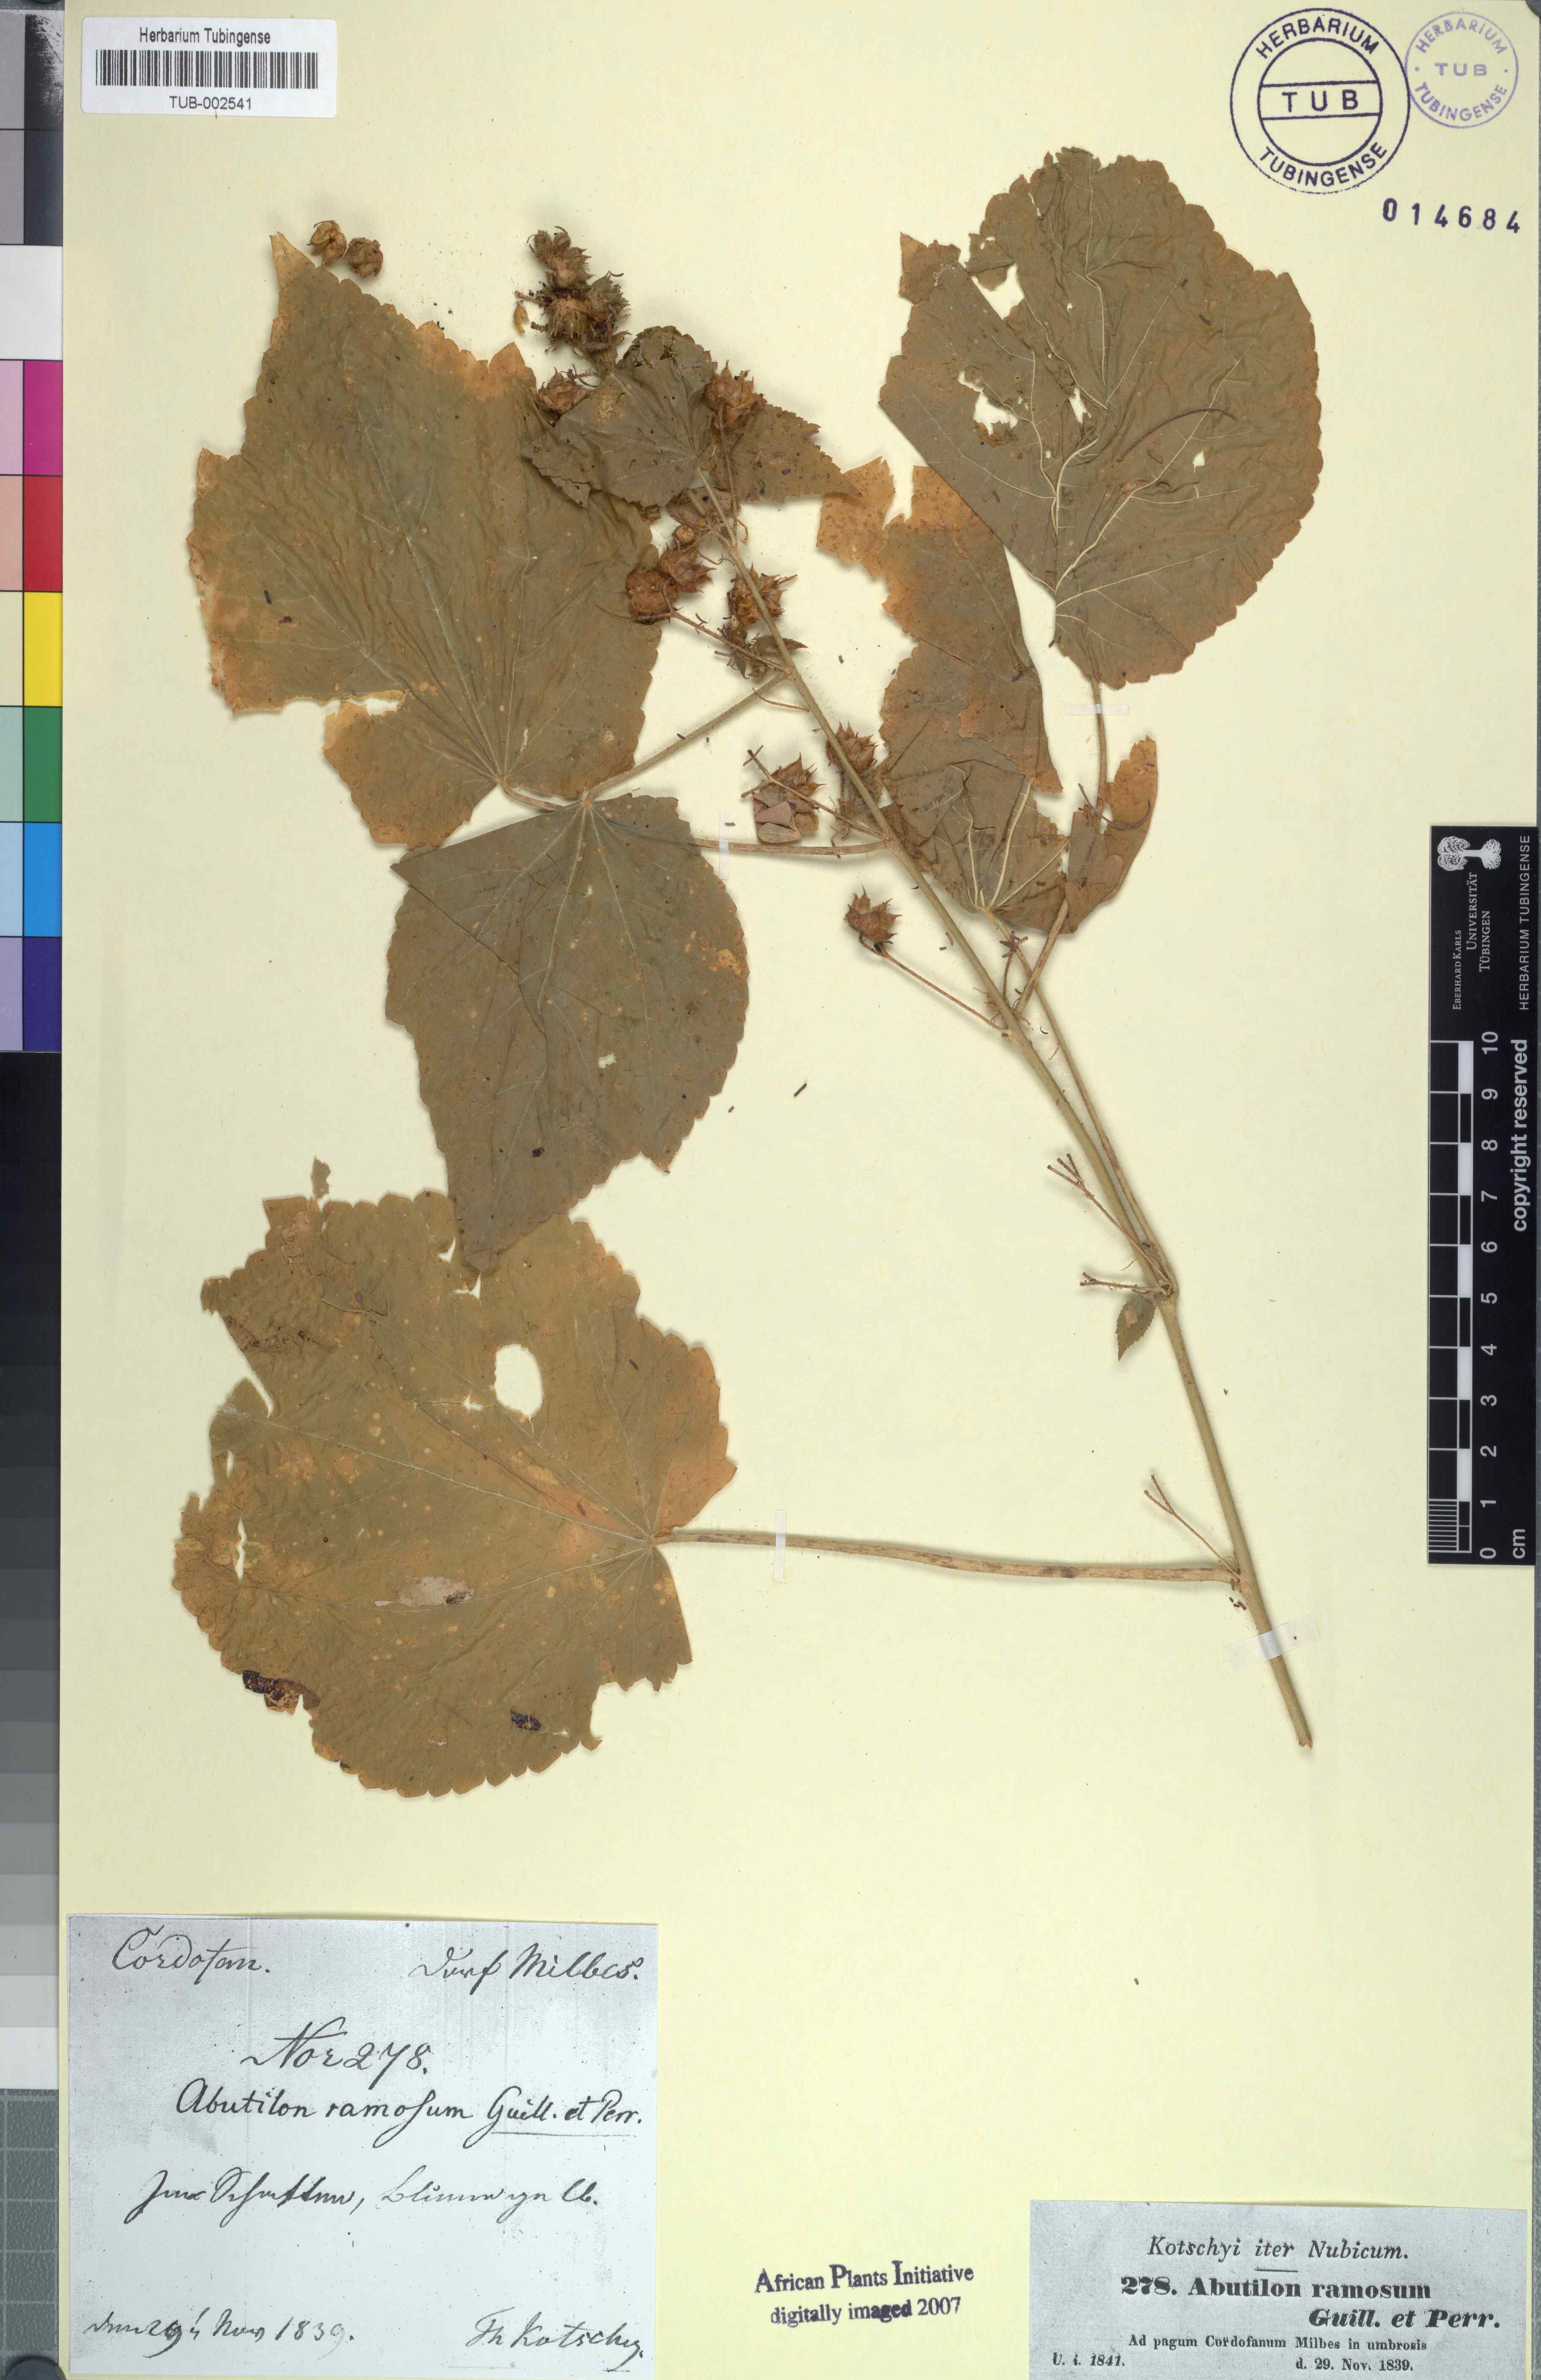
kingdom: Plantae
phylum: Tracheophyta
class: Magnoliopsida
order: Malvales
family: Malvaceae
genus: Abutilon
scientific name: Abutilon ramosum
